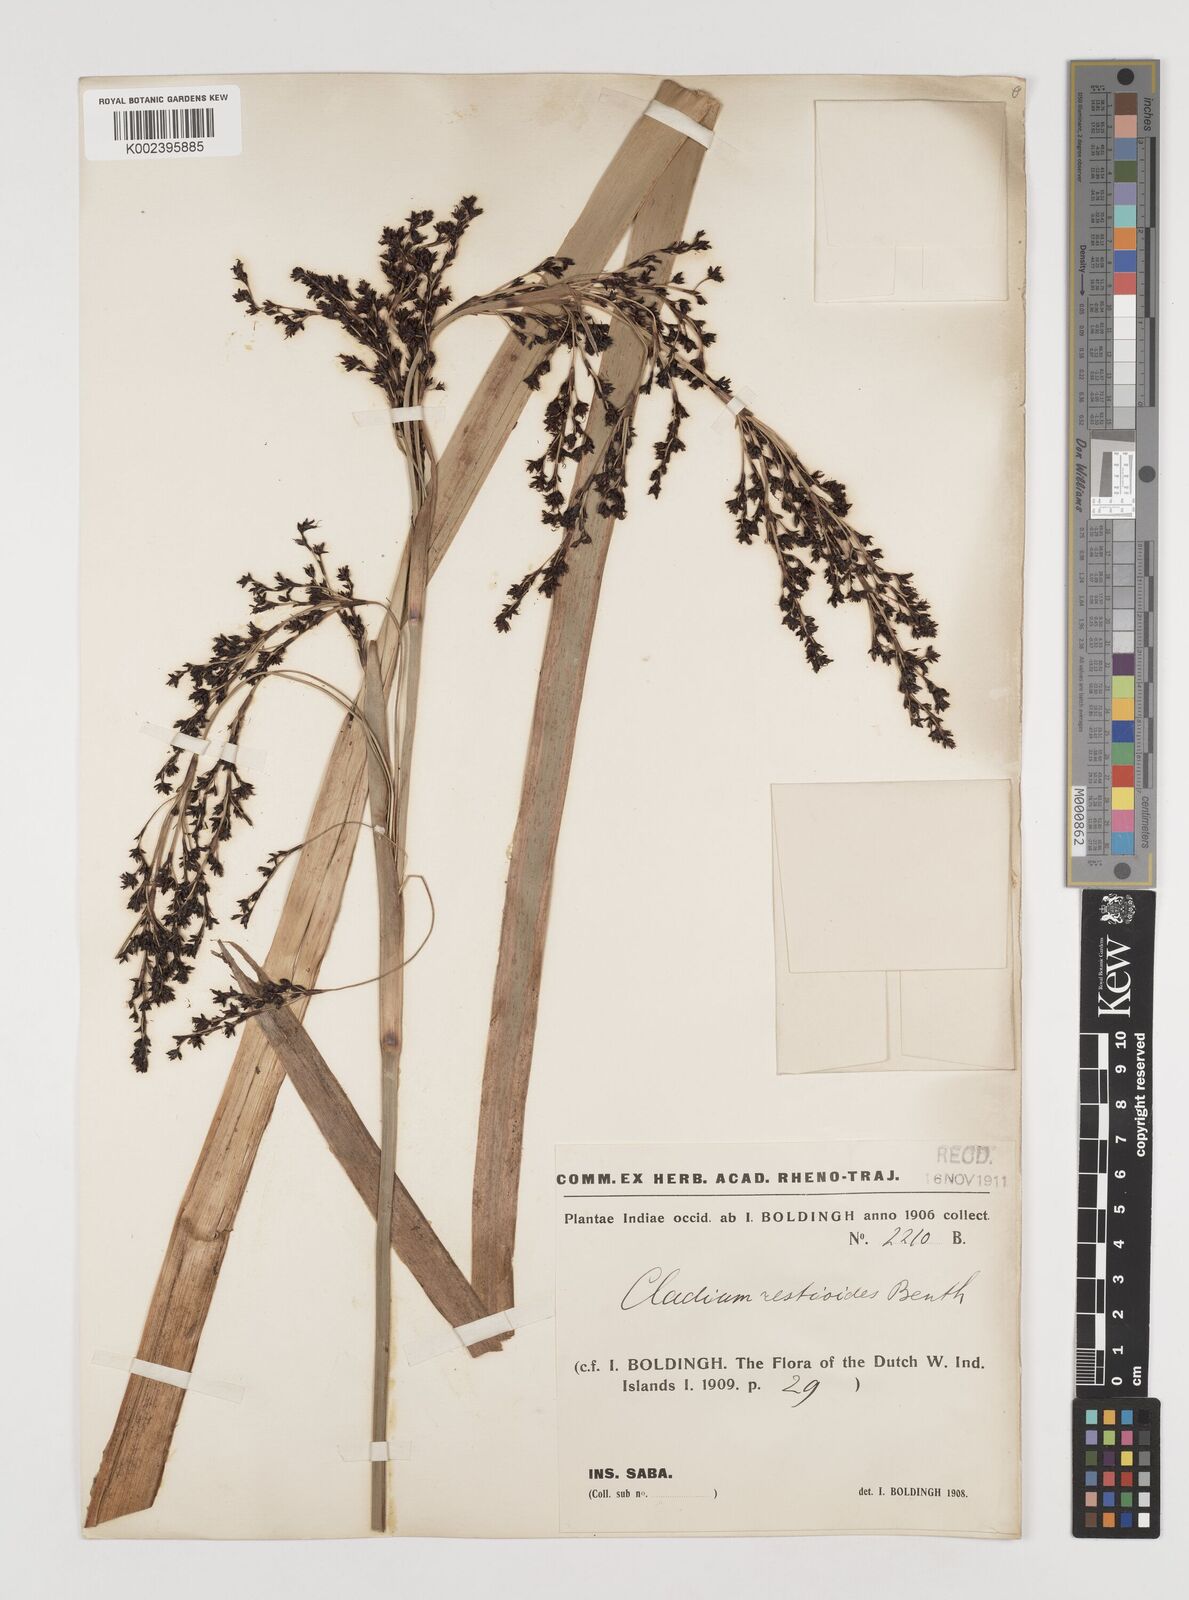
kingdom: Plantae
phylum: Tracheophyta
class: Liliopsida
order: Poales
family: Cyperaceae
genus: Machaerina
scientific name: Machaerina restioides
